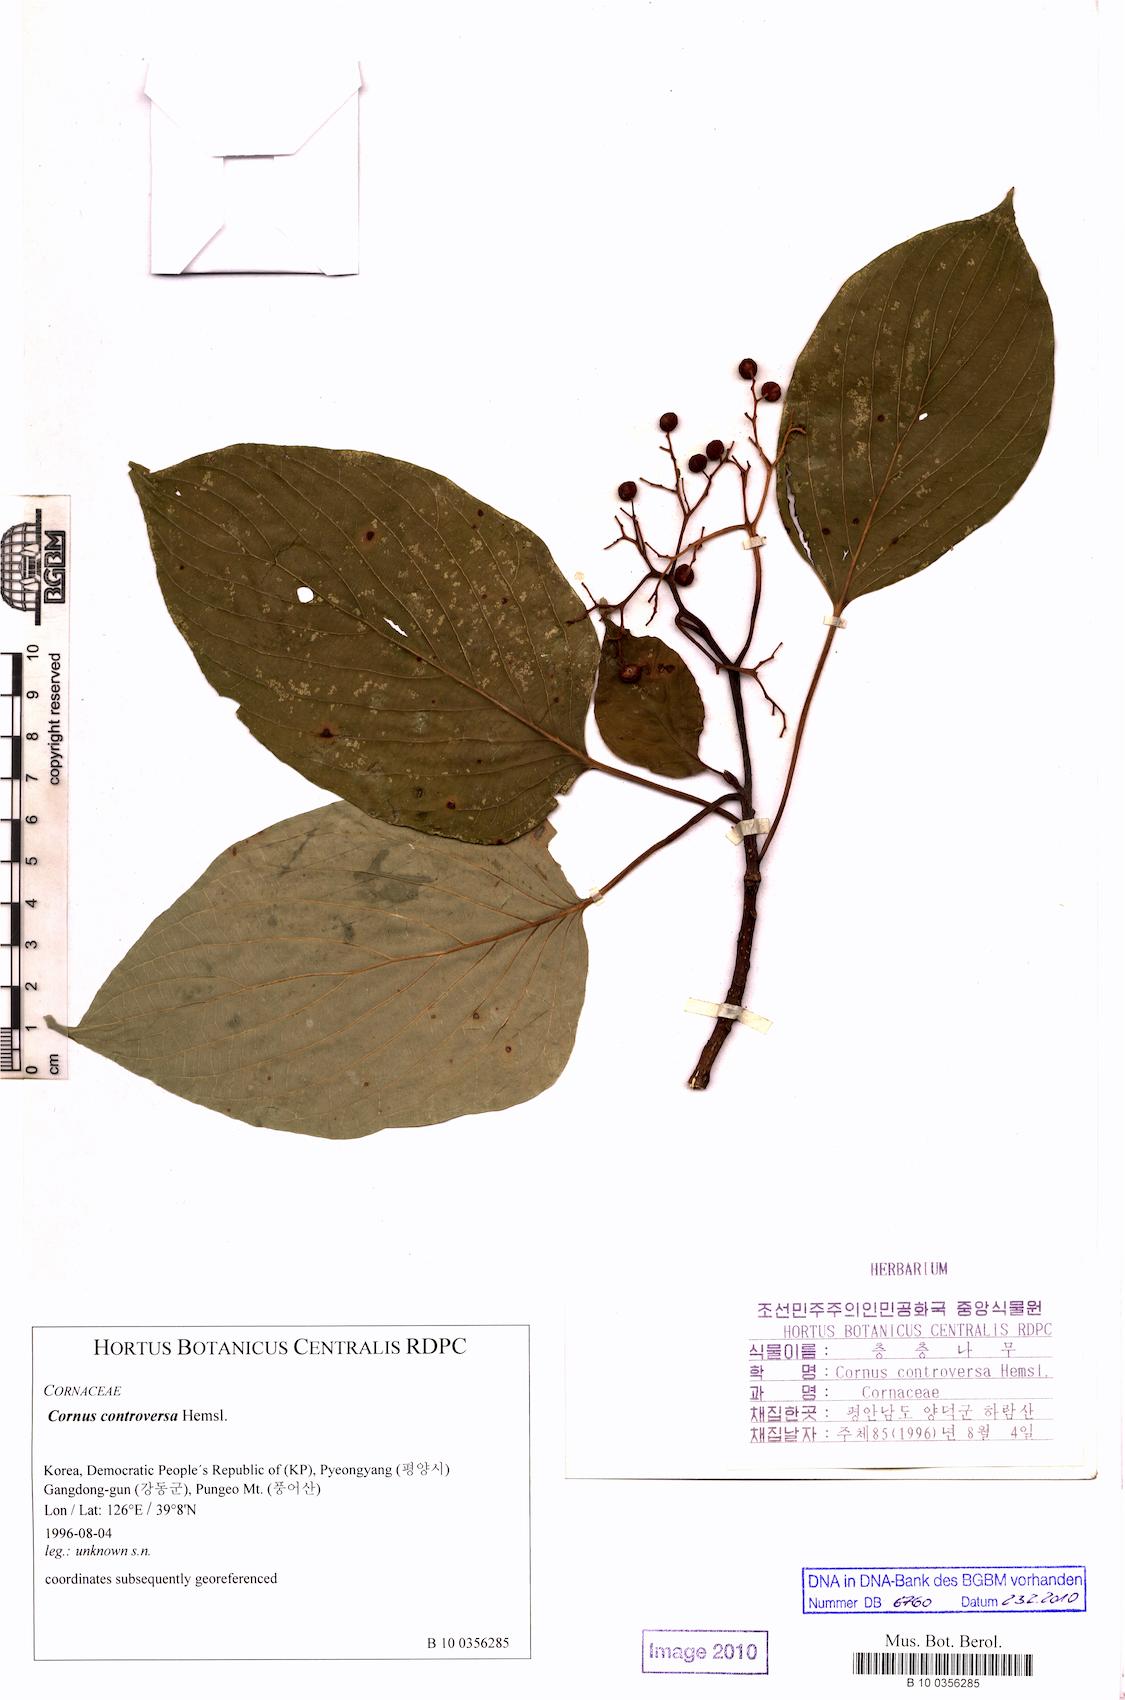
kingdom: Plantae
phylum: Tracheophyta
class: Magnoliopsida
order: Cornales
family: Cornaceae
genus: Cornus
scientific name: Cornus controversa
